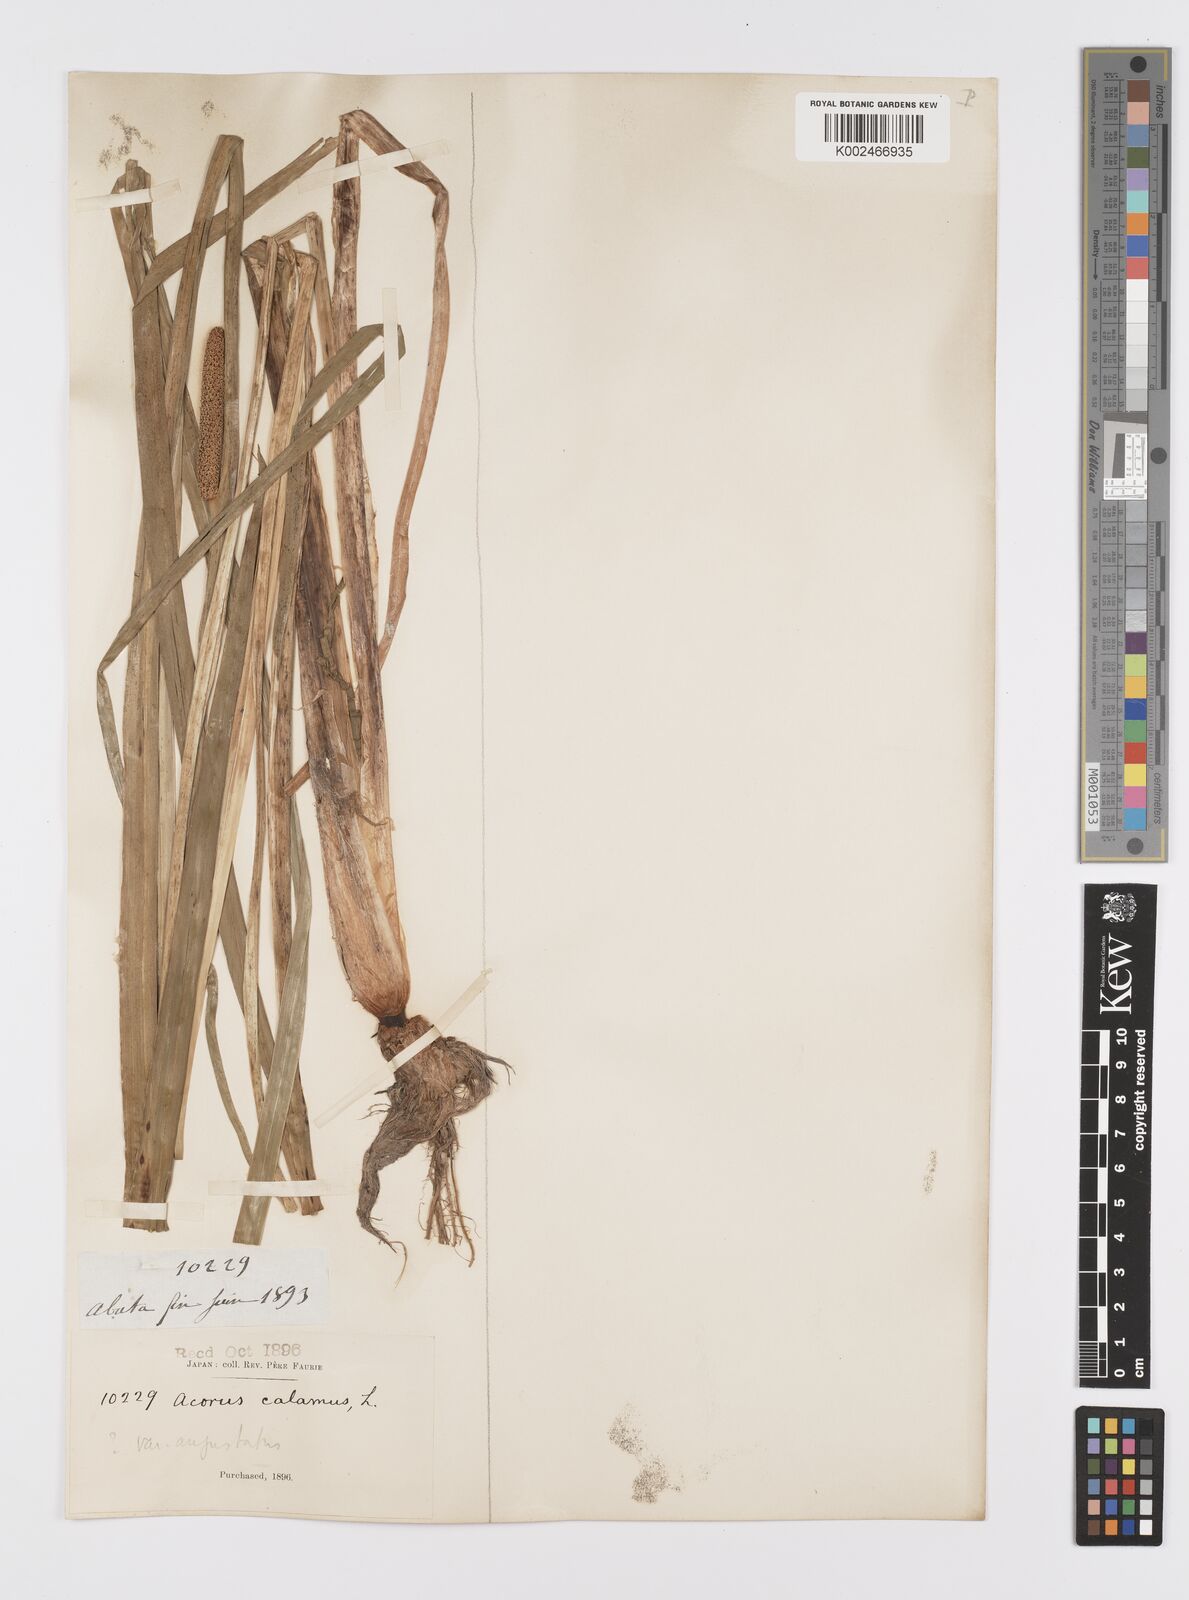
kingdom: Plantae
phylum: Tracheophyta
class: Liliopsida
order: Acorales
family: Acoraceae
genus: Acorus
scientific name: Acorus calamus
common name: Sweet-flag
